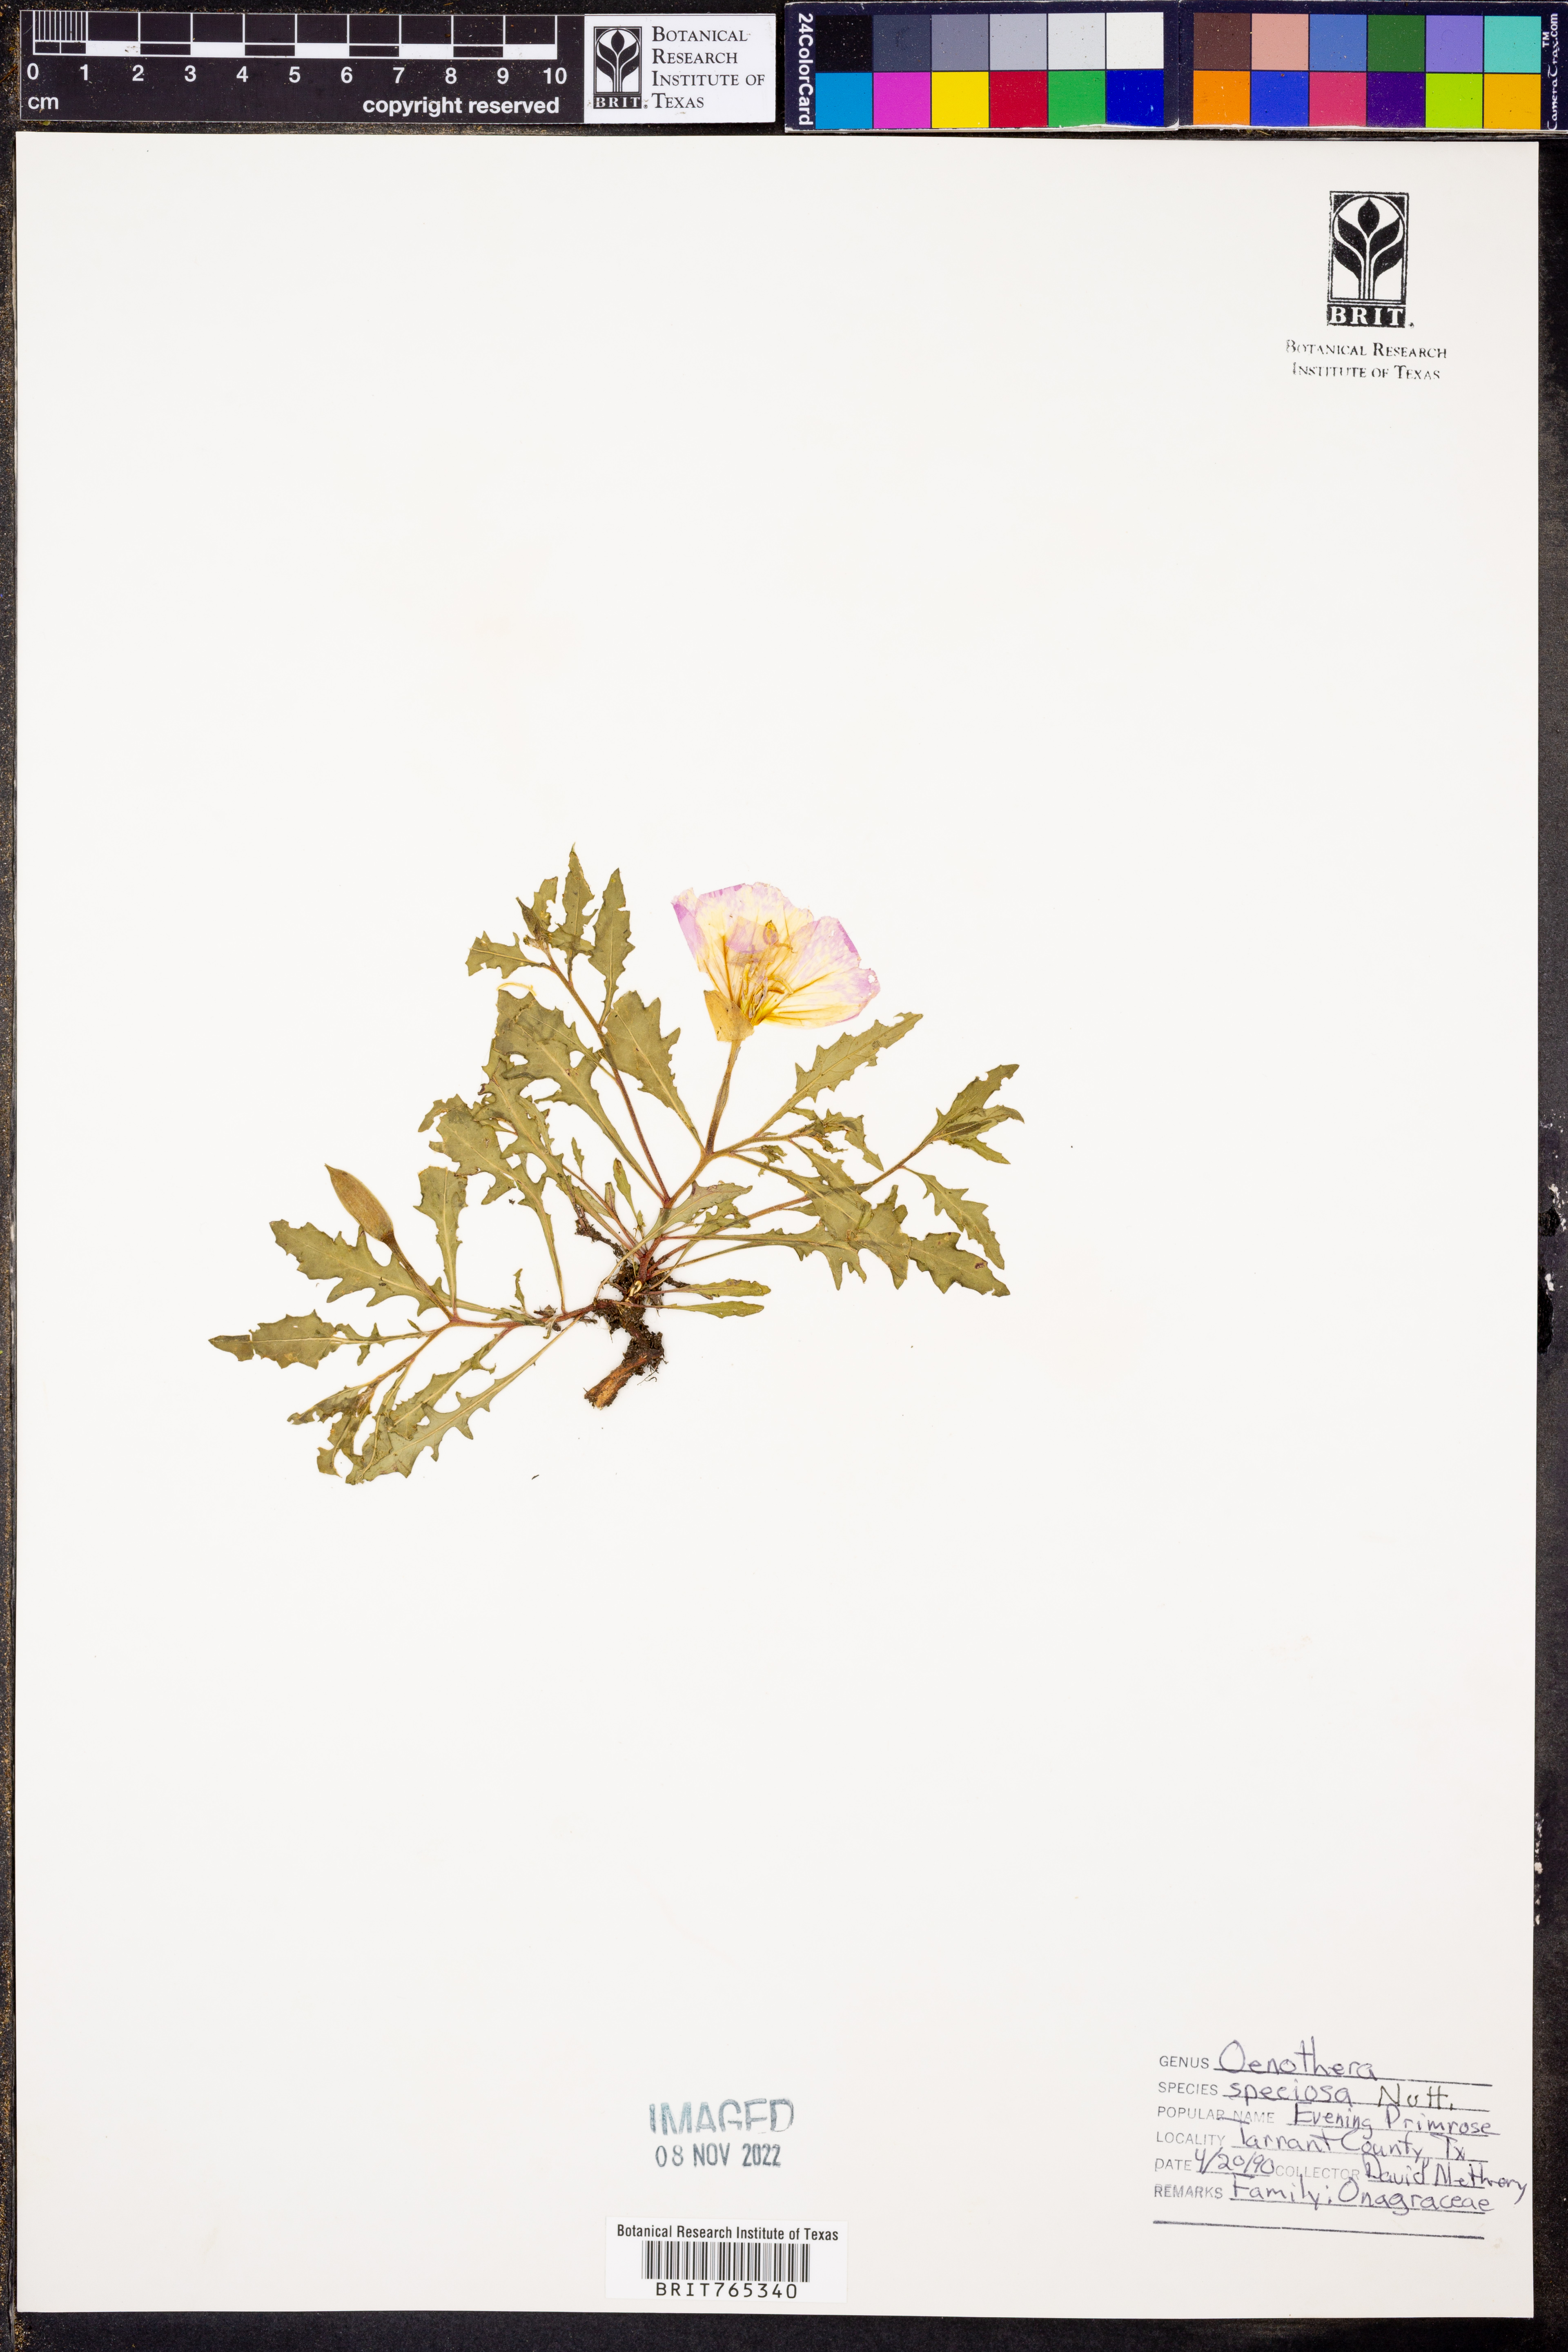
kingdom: Plantae
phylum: Tracheophyta
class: Magnoliopsida
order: Myrtales
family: Onagraceae
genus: Oenothera
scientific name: Oenothera speciosa
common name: White evening-primrose
